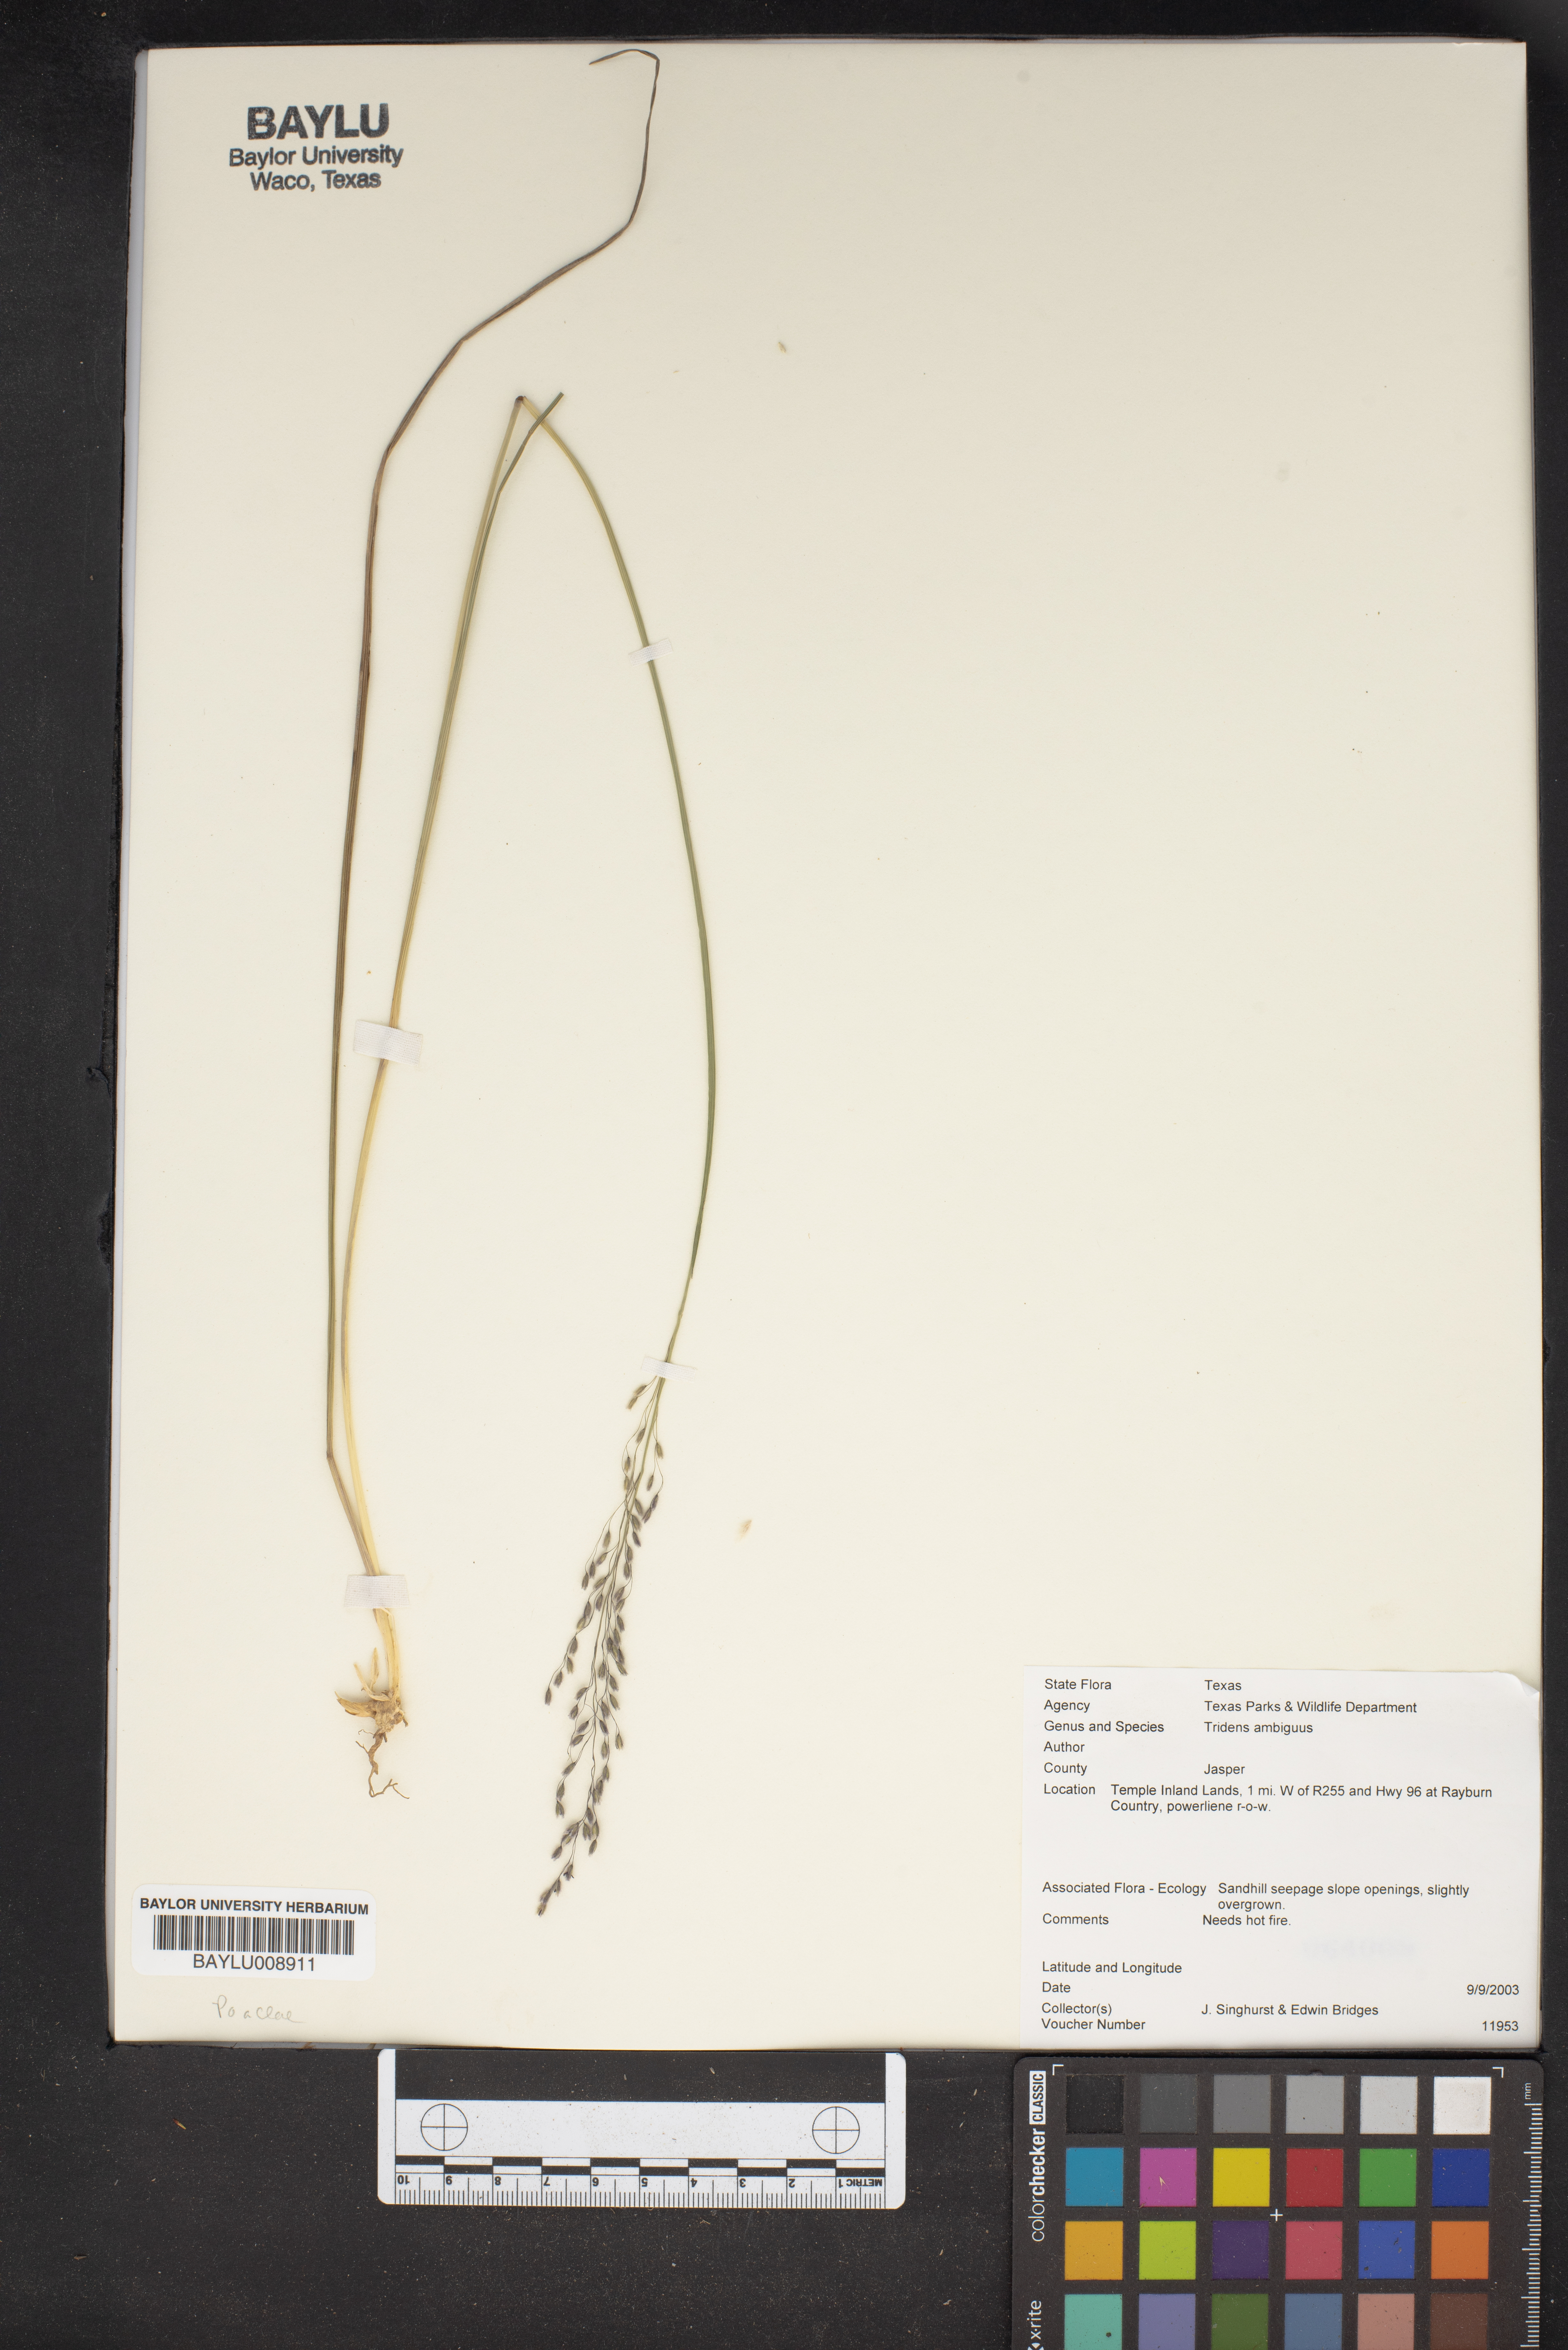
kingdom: Plantae
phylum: Tracheophyta
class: Liliopsida
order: Poales
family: Poaceae
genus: Tridens
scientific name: Tridens ambiguus
